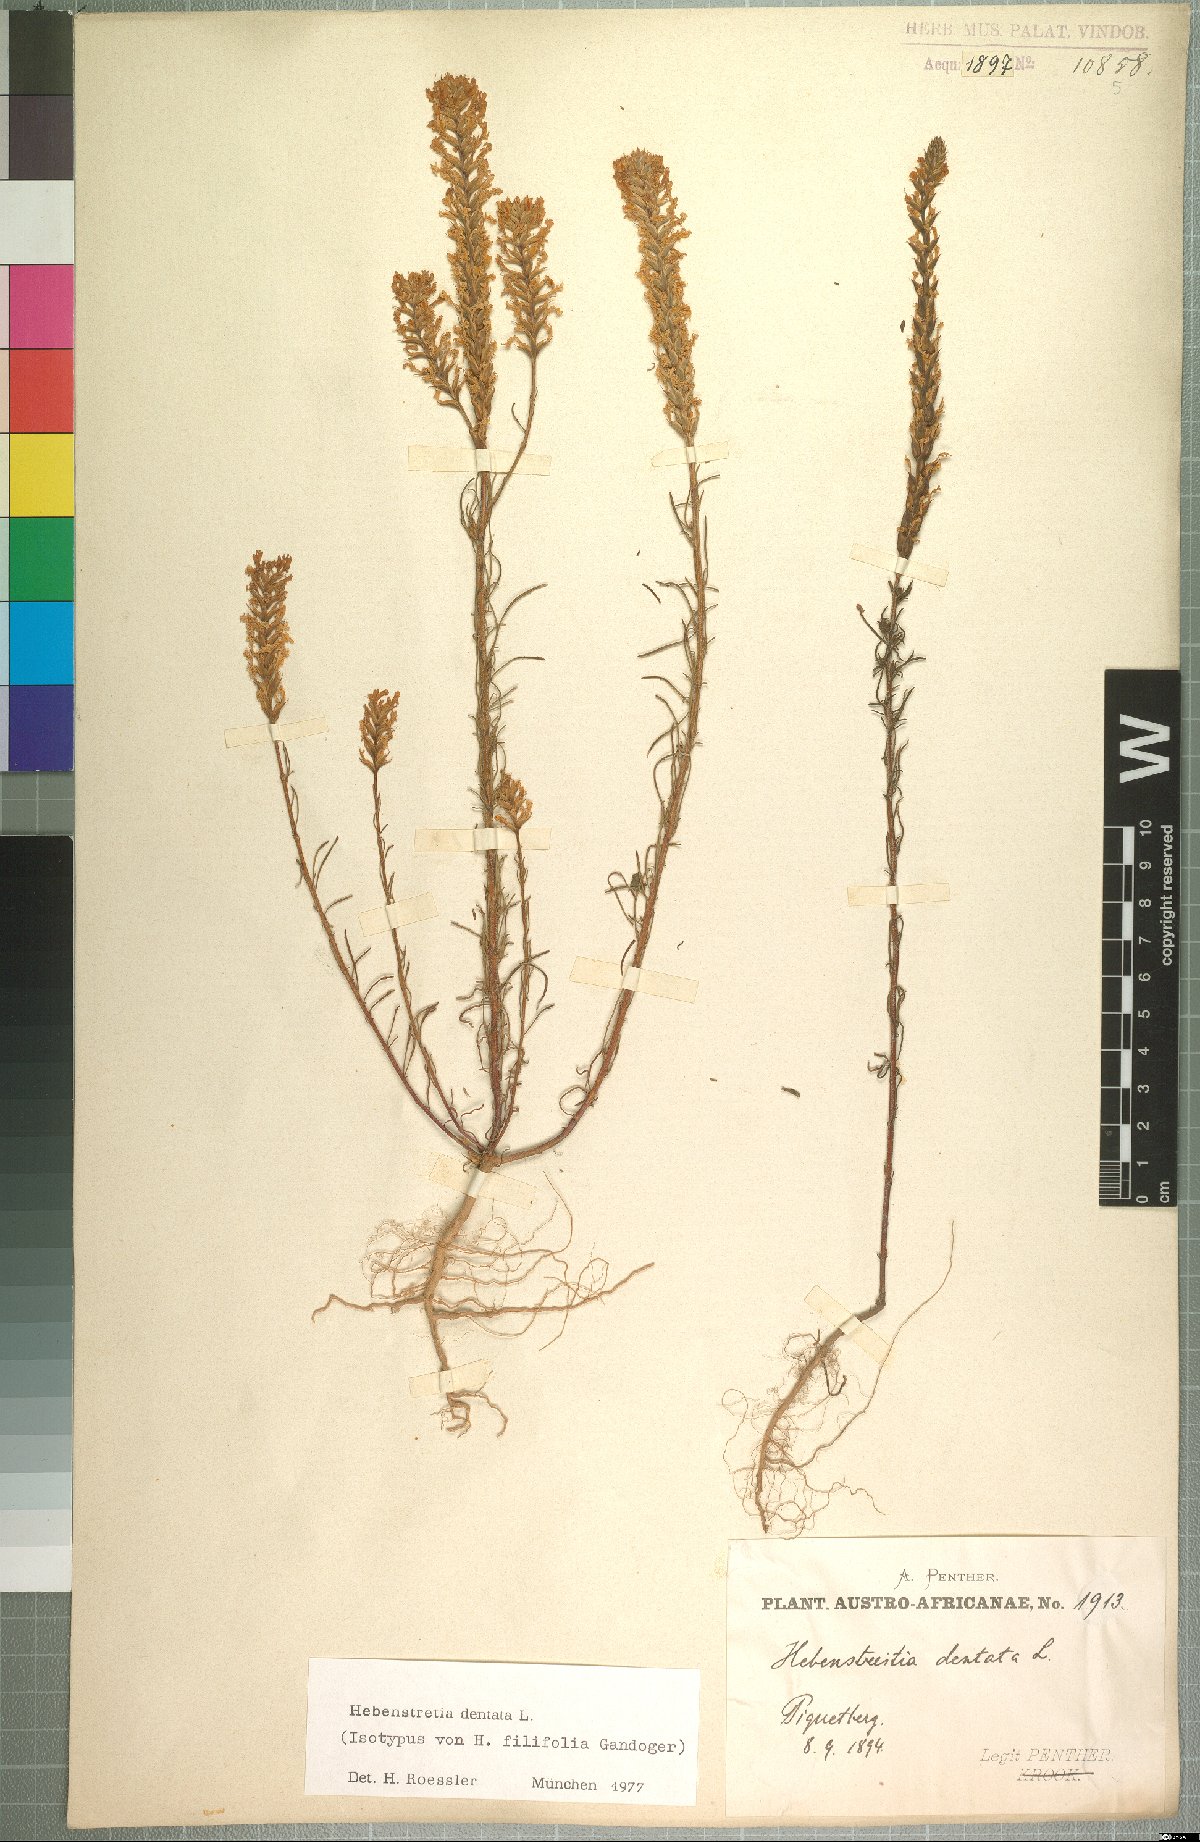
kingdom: Plantae
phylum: Tracheophyta
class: Magnoliopsida
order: Lamiales
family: Scrophulariaceae
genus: Hebenstretia
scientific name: Hebenstretia dentata
